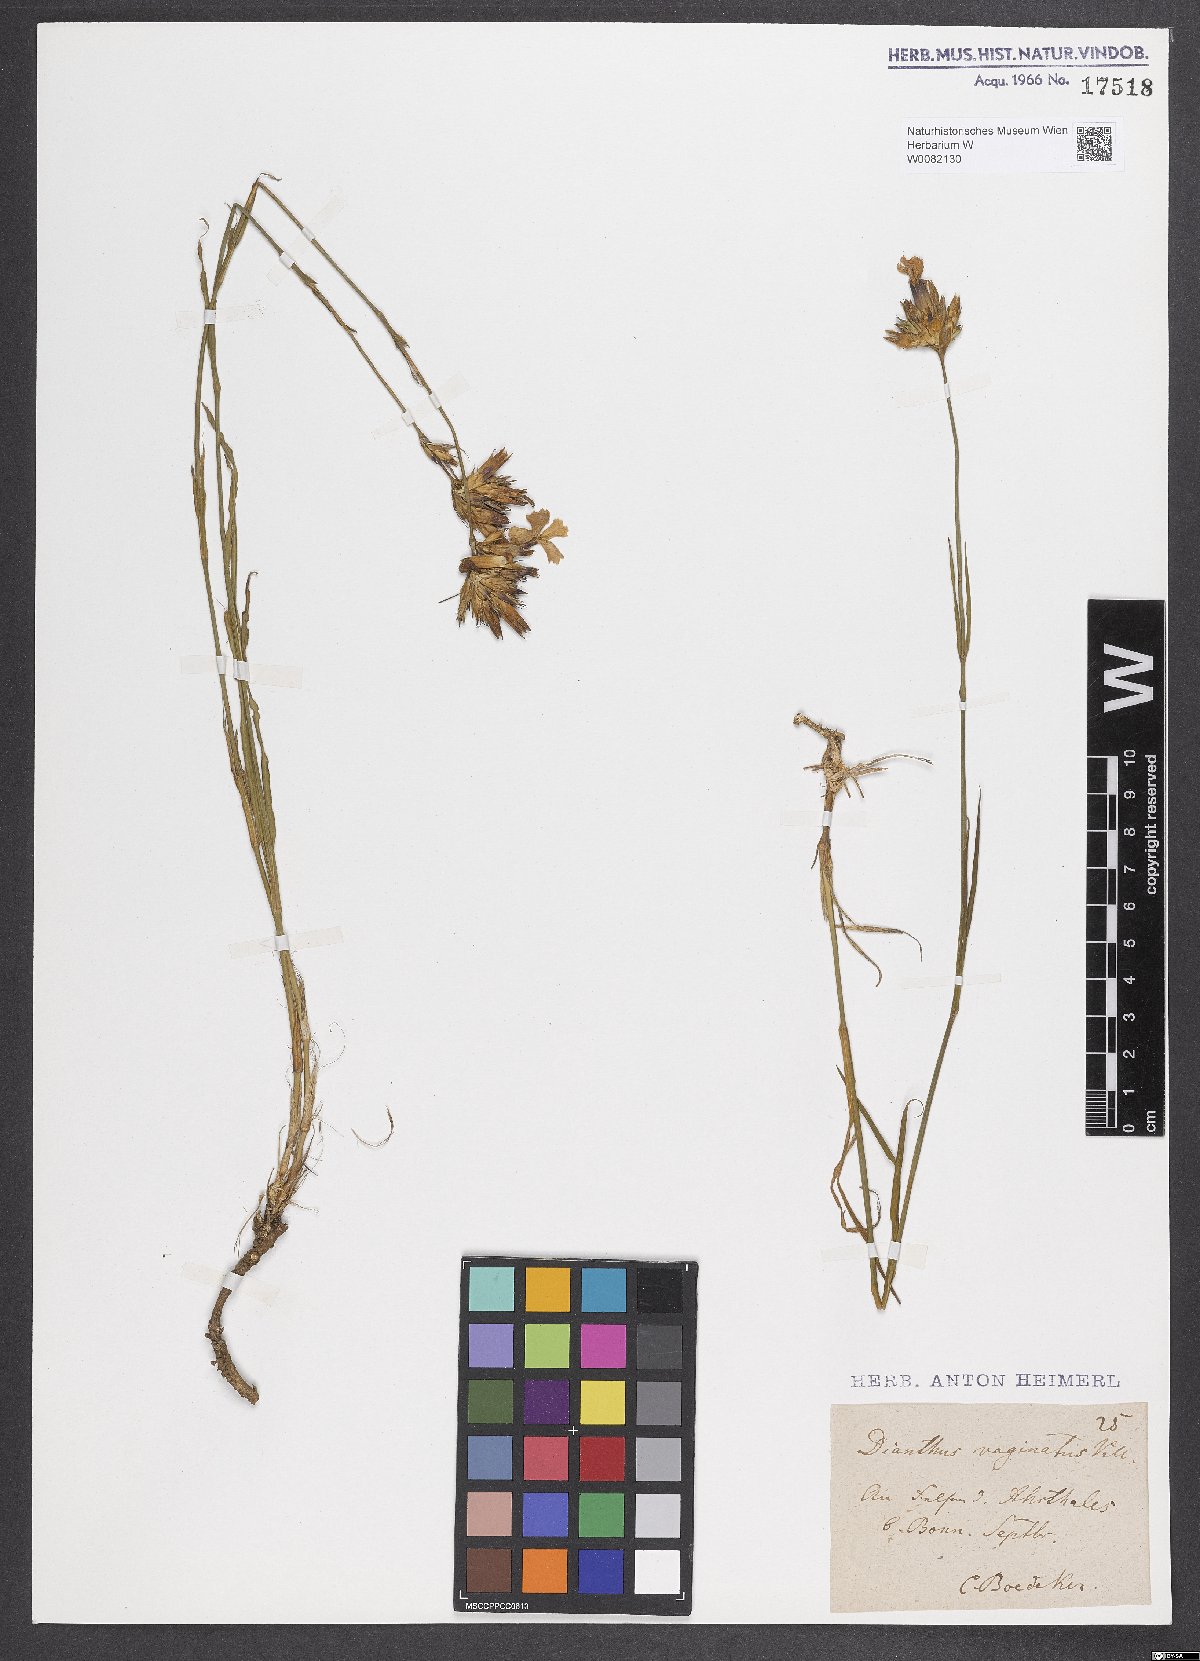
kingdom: Plantae
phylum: Tracheophyta
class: Magnoliopsida
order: Caryophyllales
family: Caryophyllaceae
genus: Dianthus
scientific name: Dianthus carthusianorum
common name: Carthusian pink
